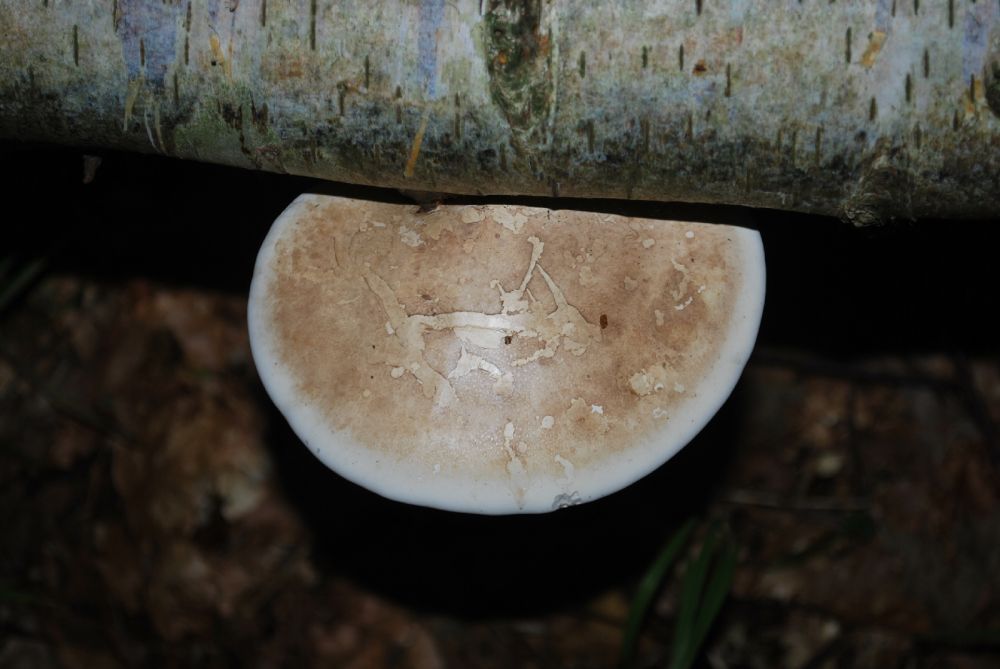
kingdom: Fungi
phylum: Basidiomycota
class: Agaricomycetes
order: Polyporales
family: Fomitopsidaceae
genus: Fomitopsis
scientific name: Fomitopsis betulina
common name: birkeporesvamp
